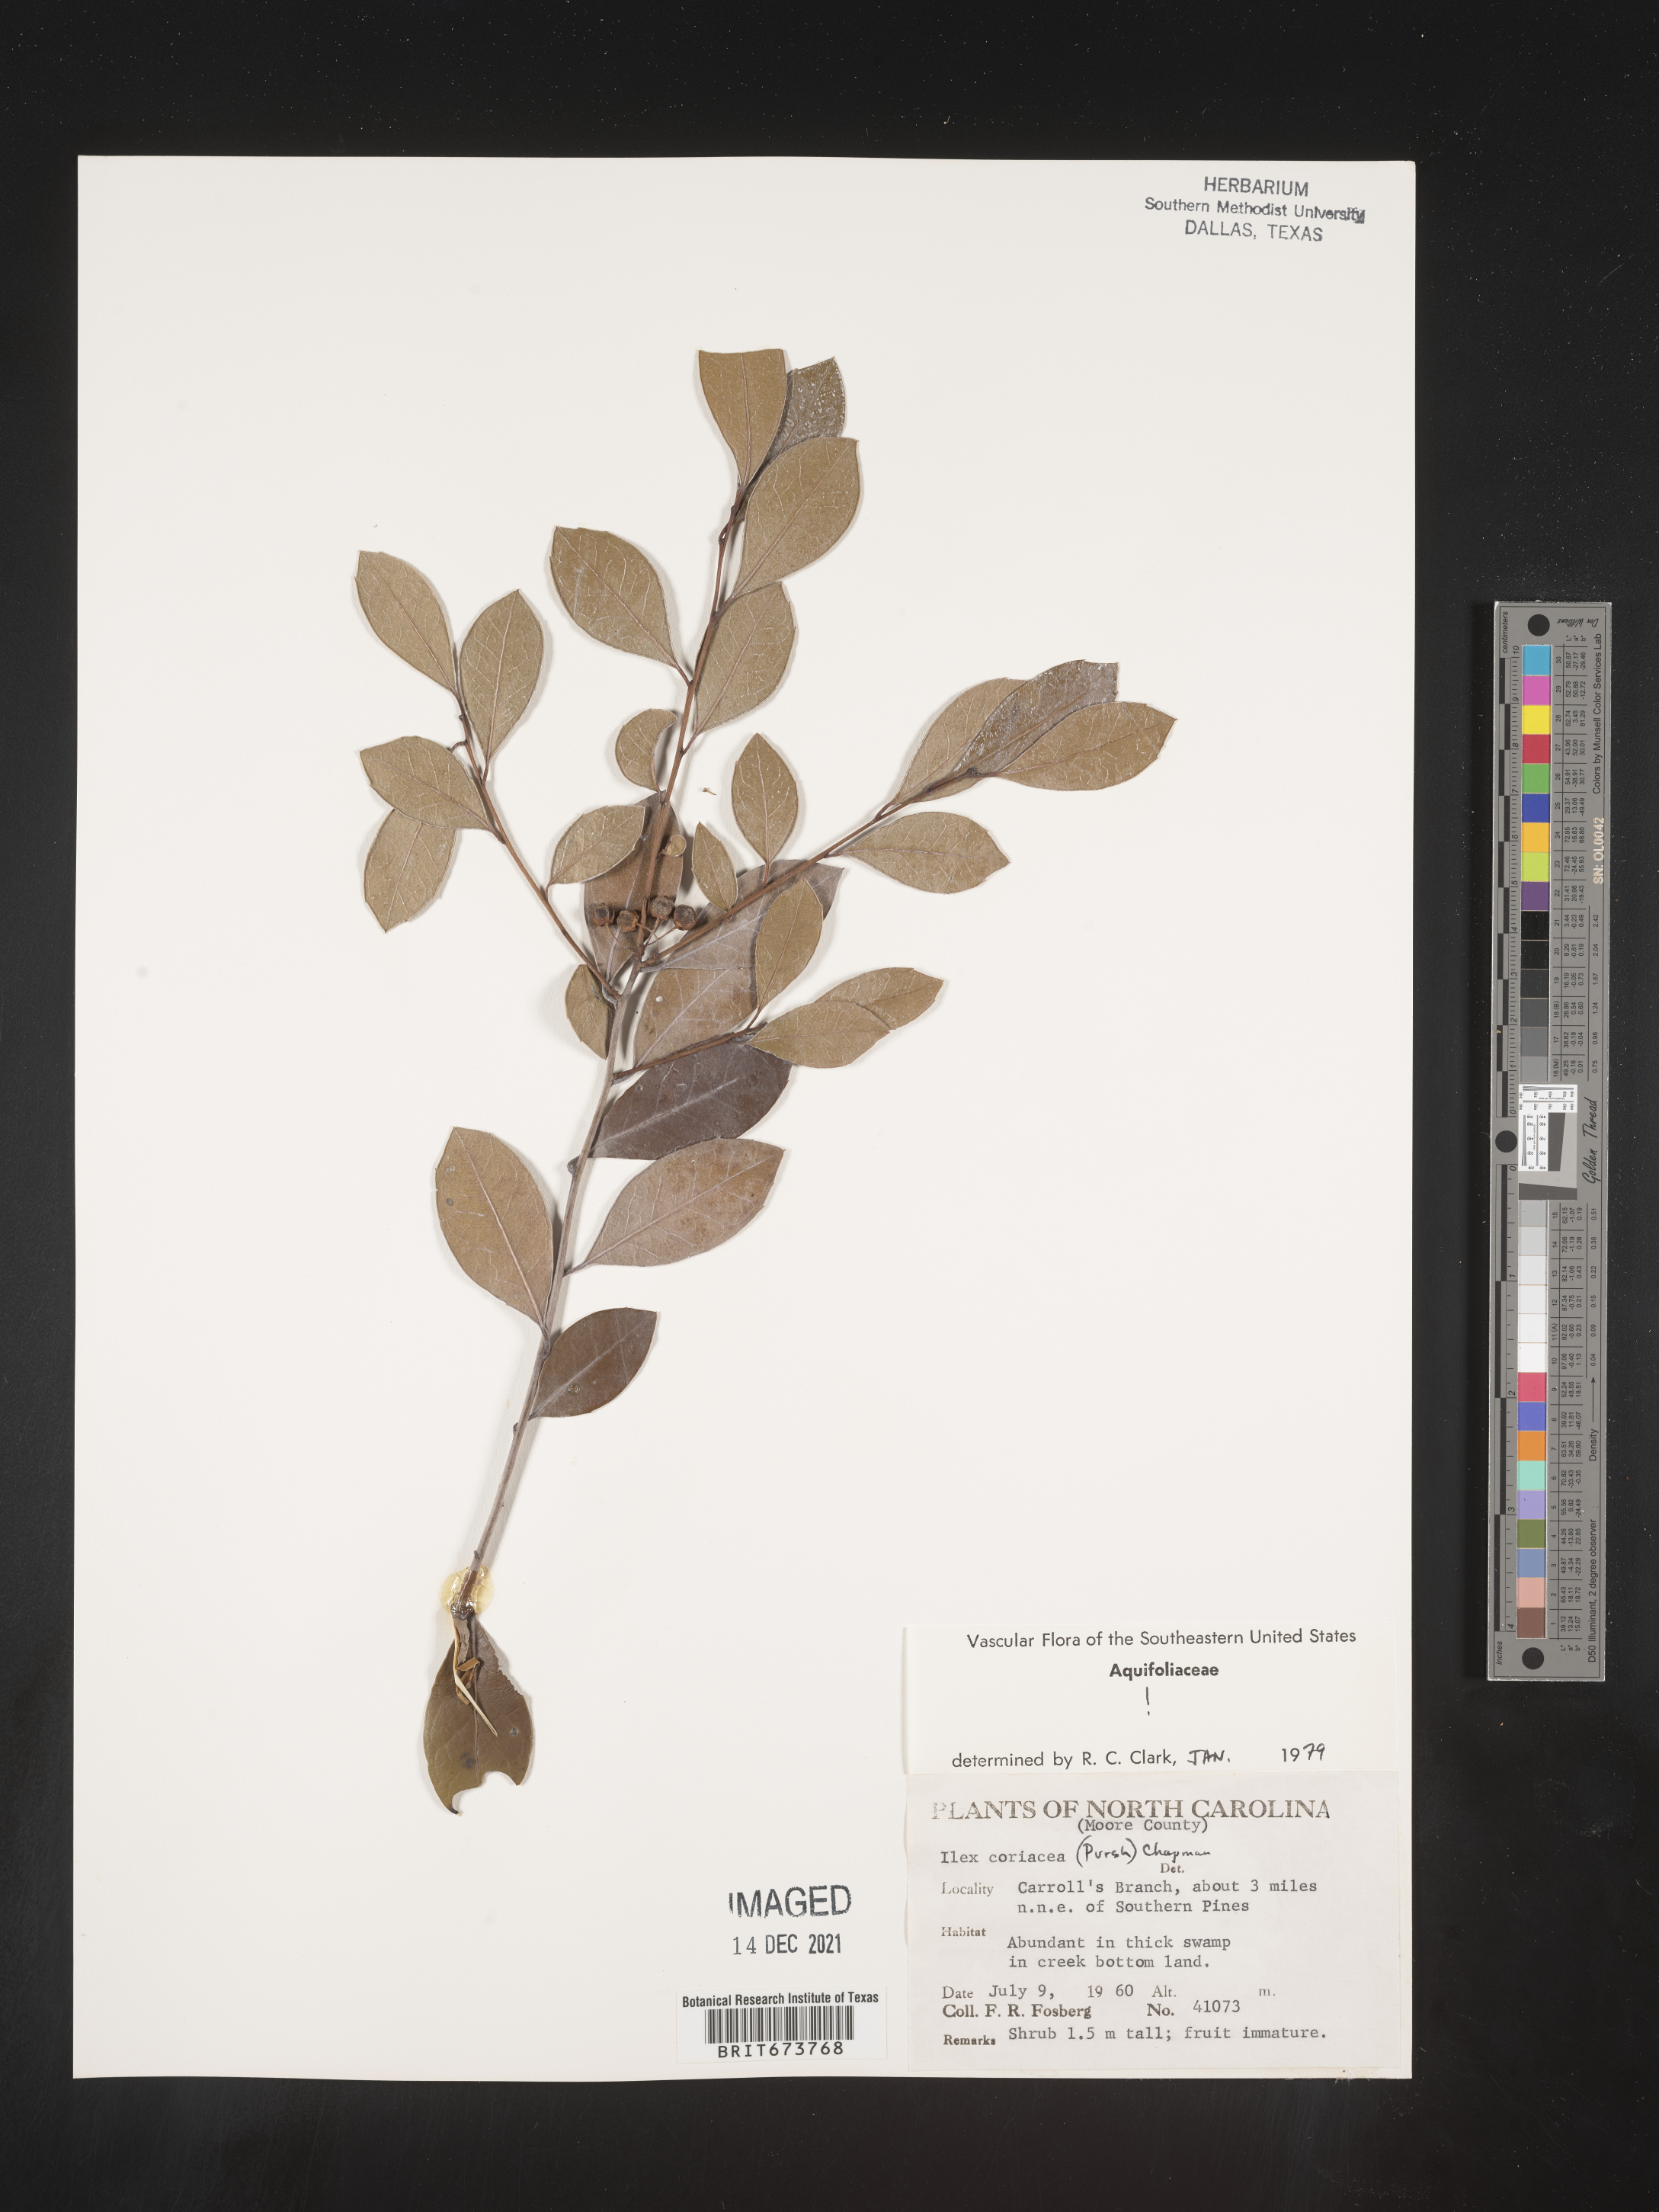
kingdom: Plantae
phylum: Tracheophyta
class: Magnoliopsida
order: Aquifoliales
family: Aquifoliaceae
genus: Ilex
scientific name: Ilex coriacea
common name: Sweet gallberry
